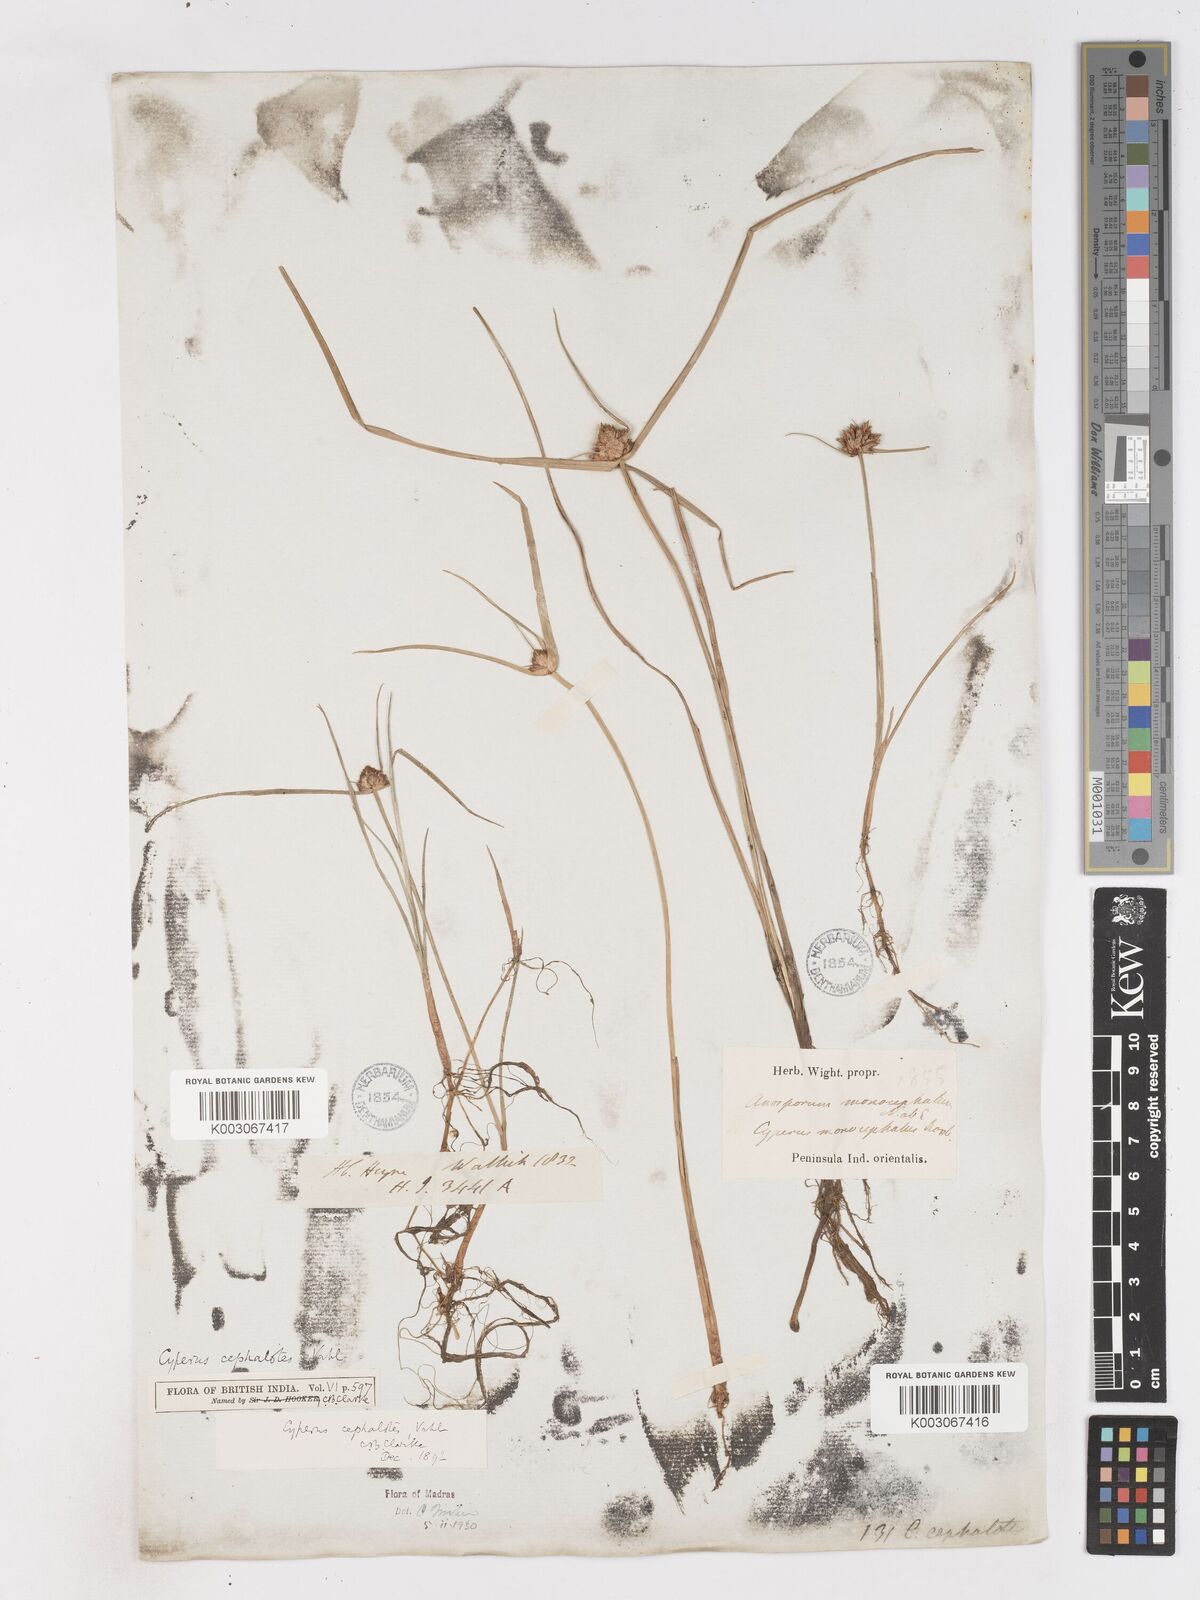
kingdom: Plantae
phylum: Tracheophyta
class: Liliopsida
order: Poales
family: Cyperaceae
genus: Cyperus
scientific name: Cyperus cephalotes
